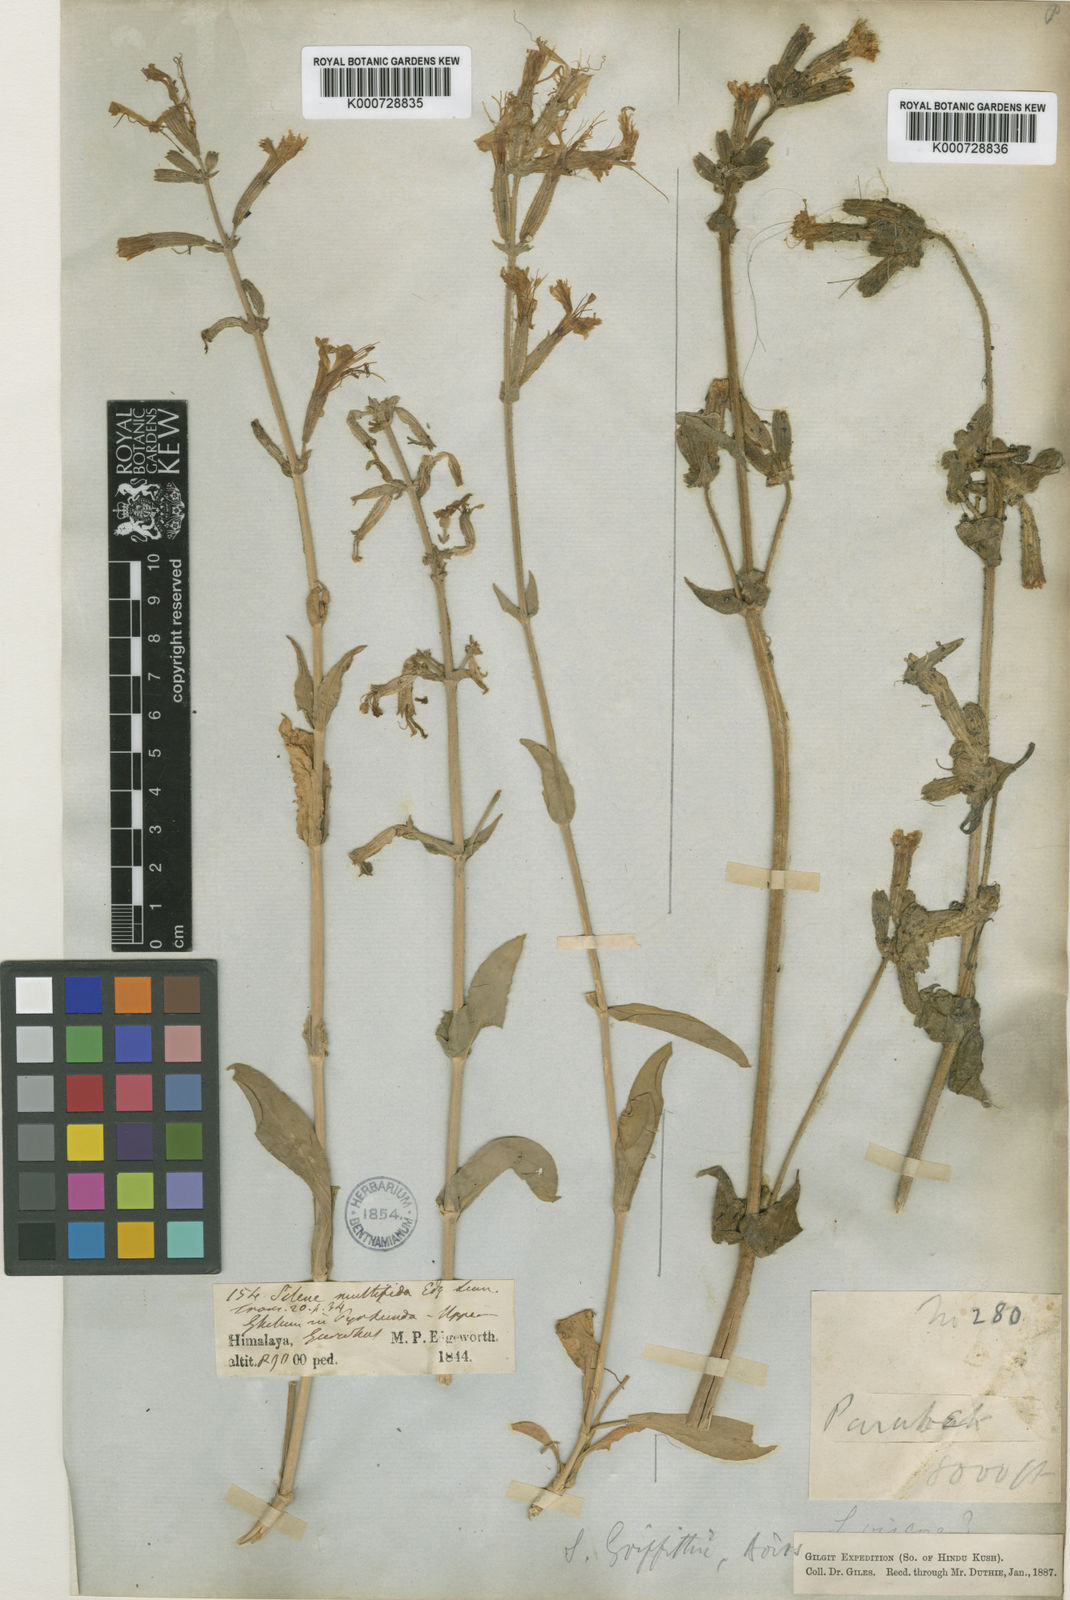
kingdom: Plantae
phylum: Tracheophyta
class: Magnoliopsida
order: Caryophyllales
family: Caryophyllaceae
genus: Silene
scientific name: Silene viscosa
